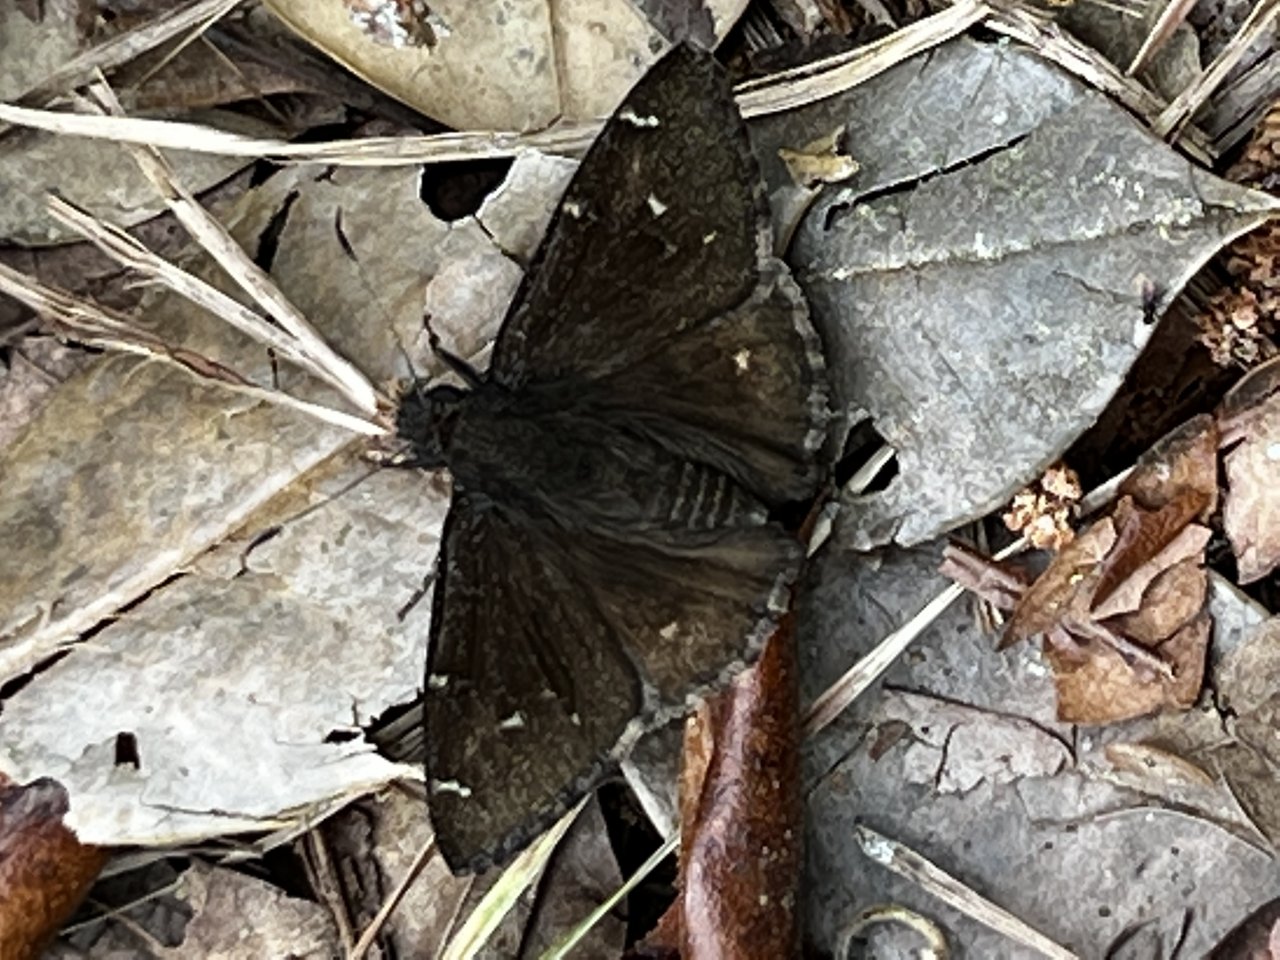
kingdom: Animalia
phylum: Arthropoda
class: Insecta
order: Lepidoptera
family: Hesperiidae
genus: Thorybes
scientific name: Thorybes mexicana
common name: Confused Cloudywing
